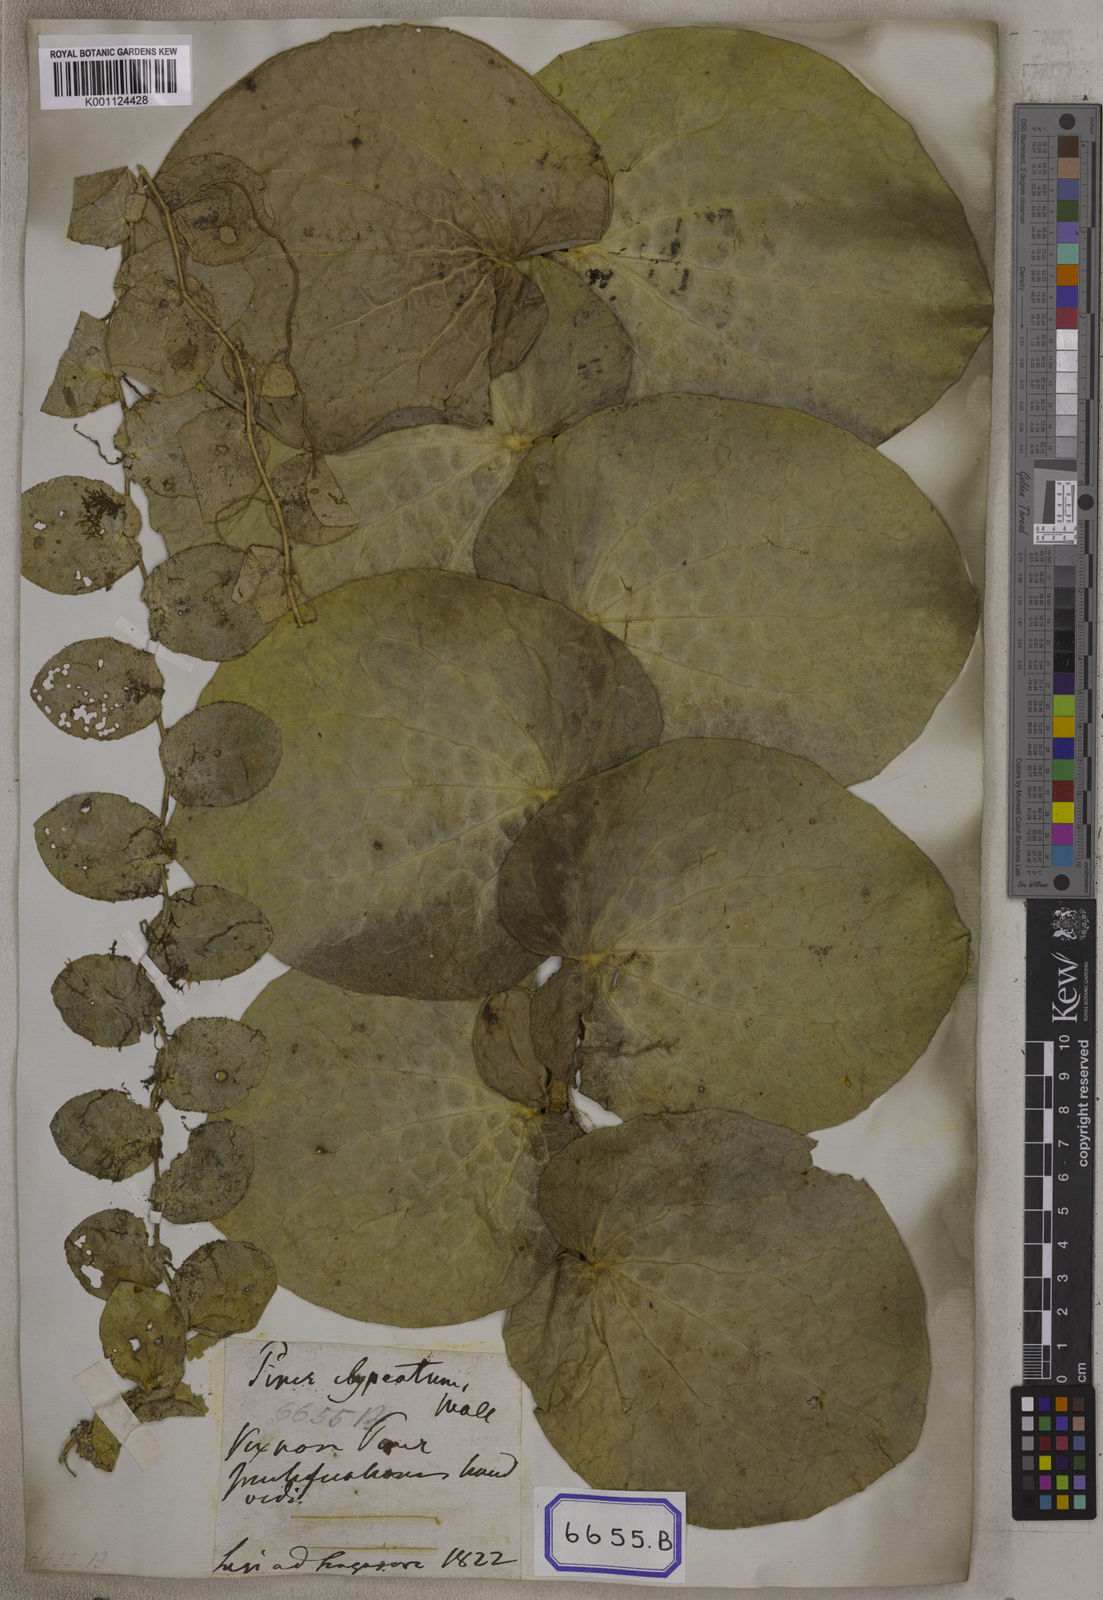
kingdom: Plantae
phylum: Tracheophyta
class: Magnoliopsida
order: Piperales
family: Piperaceae
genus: Piper
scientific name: Piper
